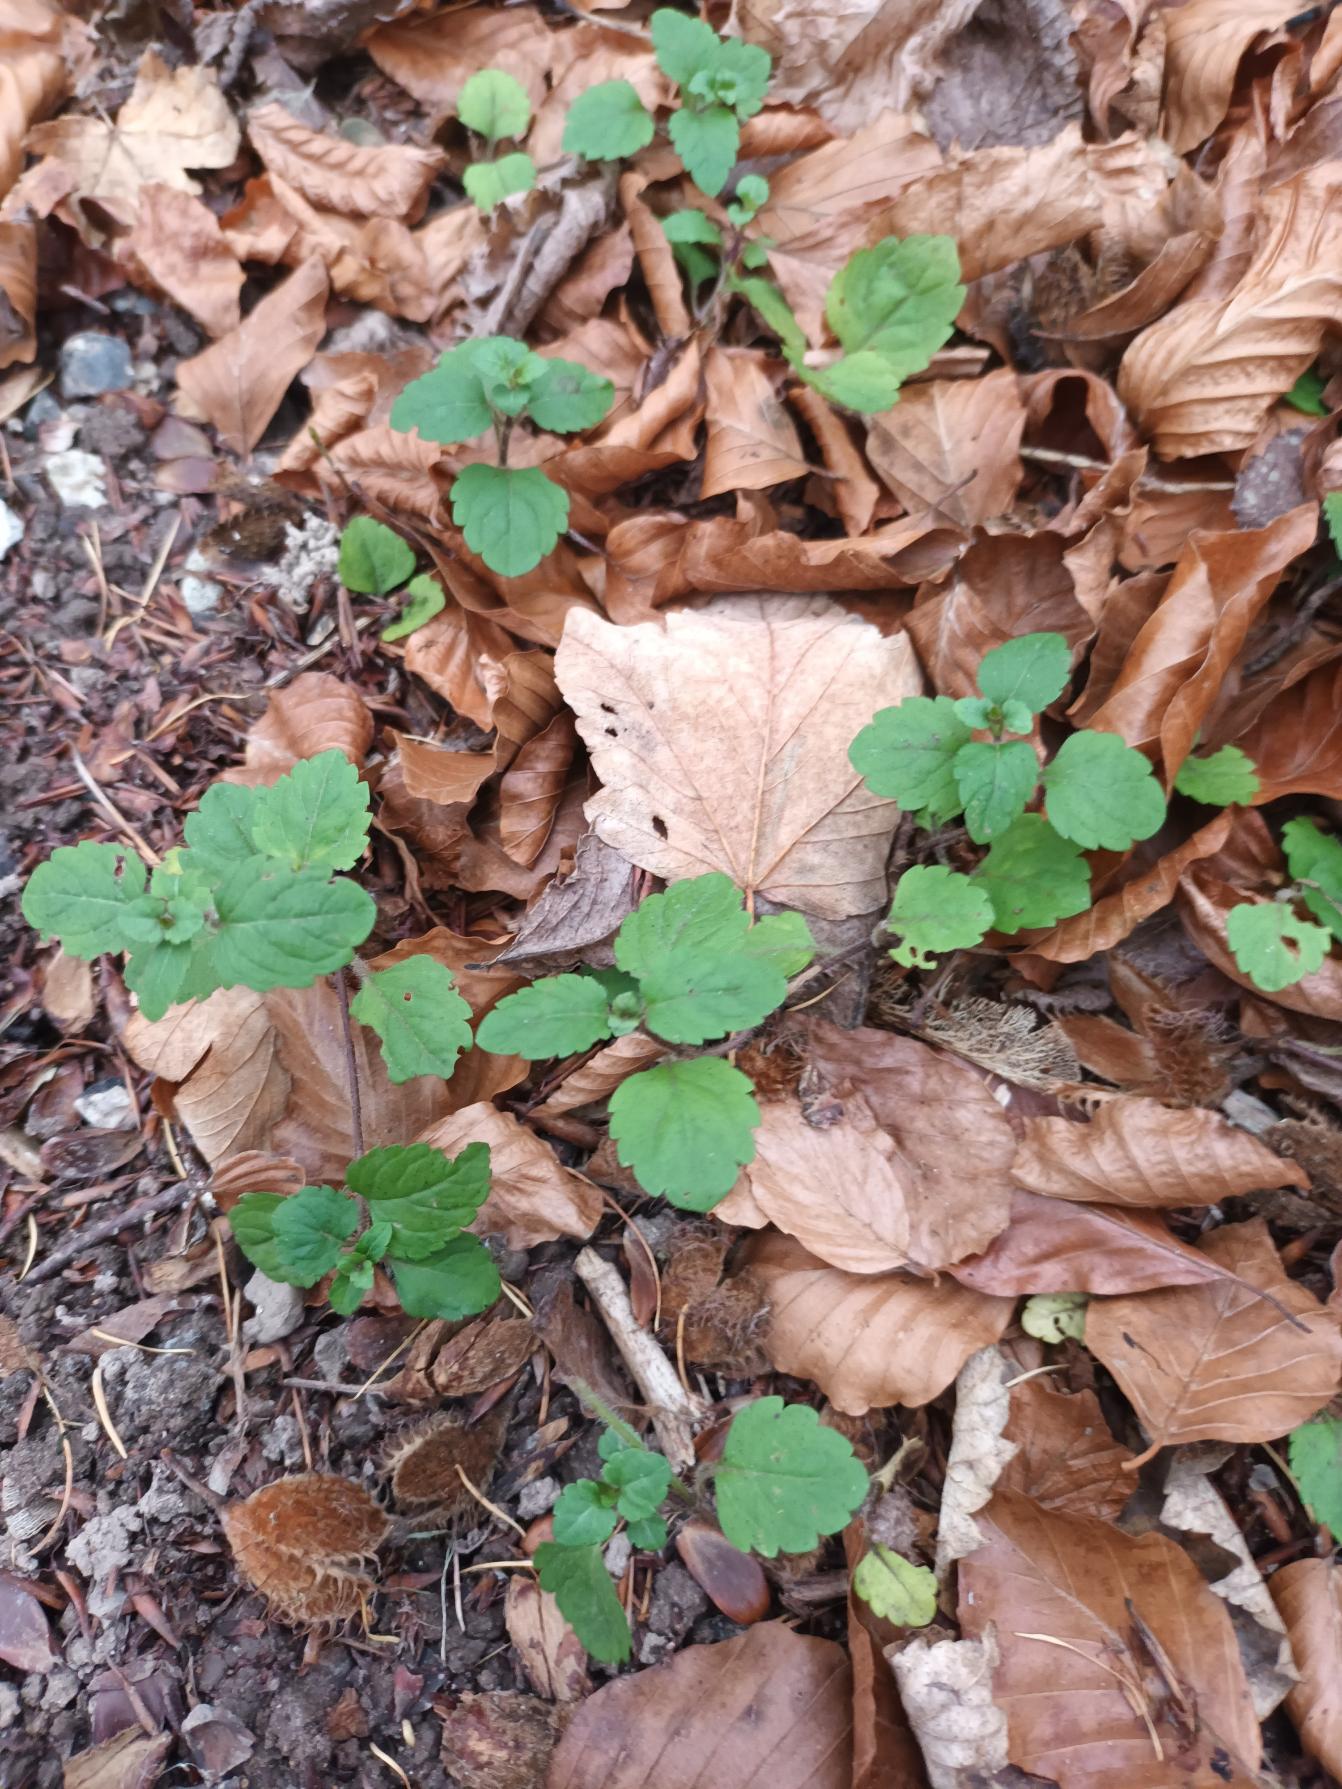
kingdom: Plantae
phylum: Tracheophyta
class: Magnoliopsida
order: Lamiales
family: Plantaginaceae
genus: Veronica
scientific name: Veronica montana
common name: Bjerg-ærenpris
